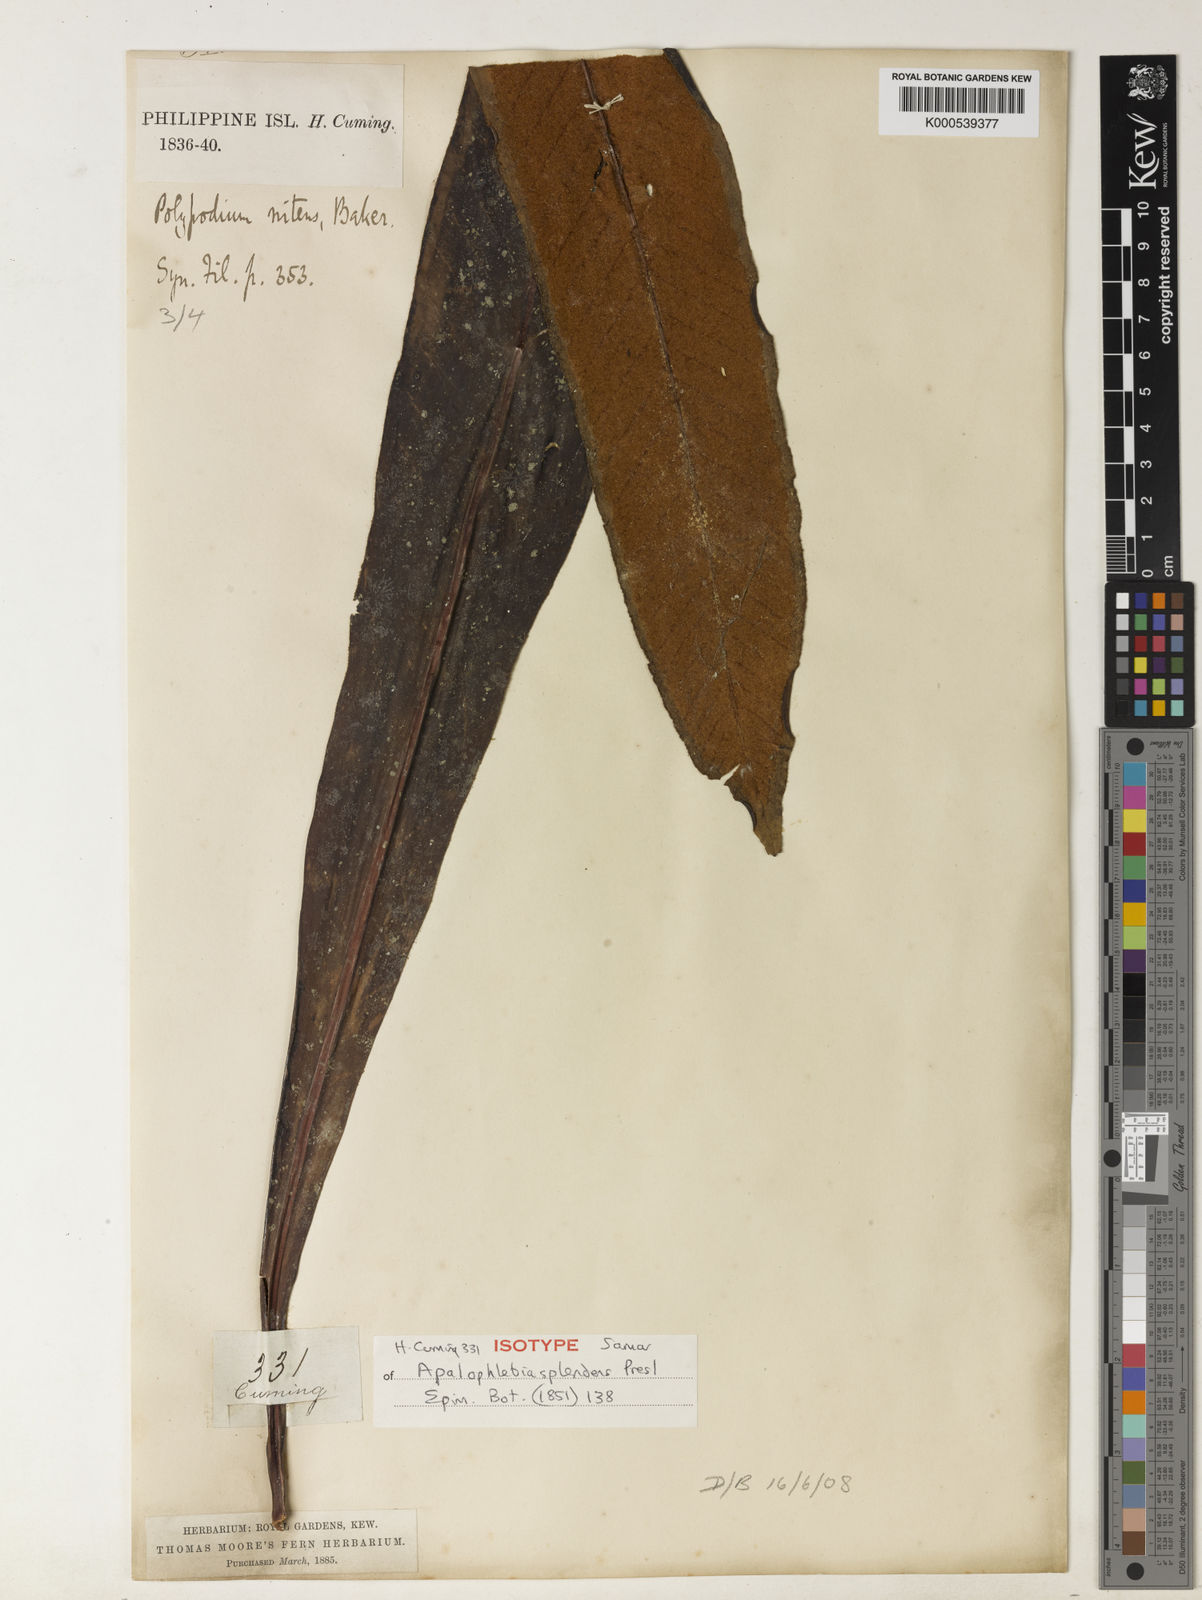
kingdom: Plantae
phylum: Tracheophyta
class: Polypodiopsida
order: Polypodiales
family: Polypodiaceae
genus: Pyrrosia
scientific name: Pyrrosia splendens
